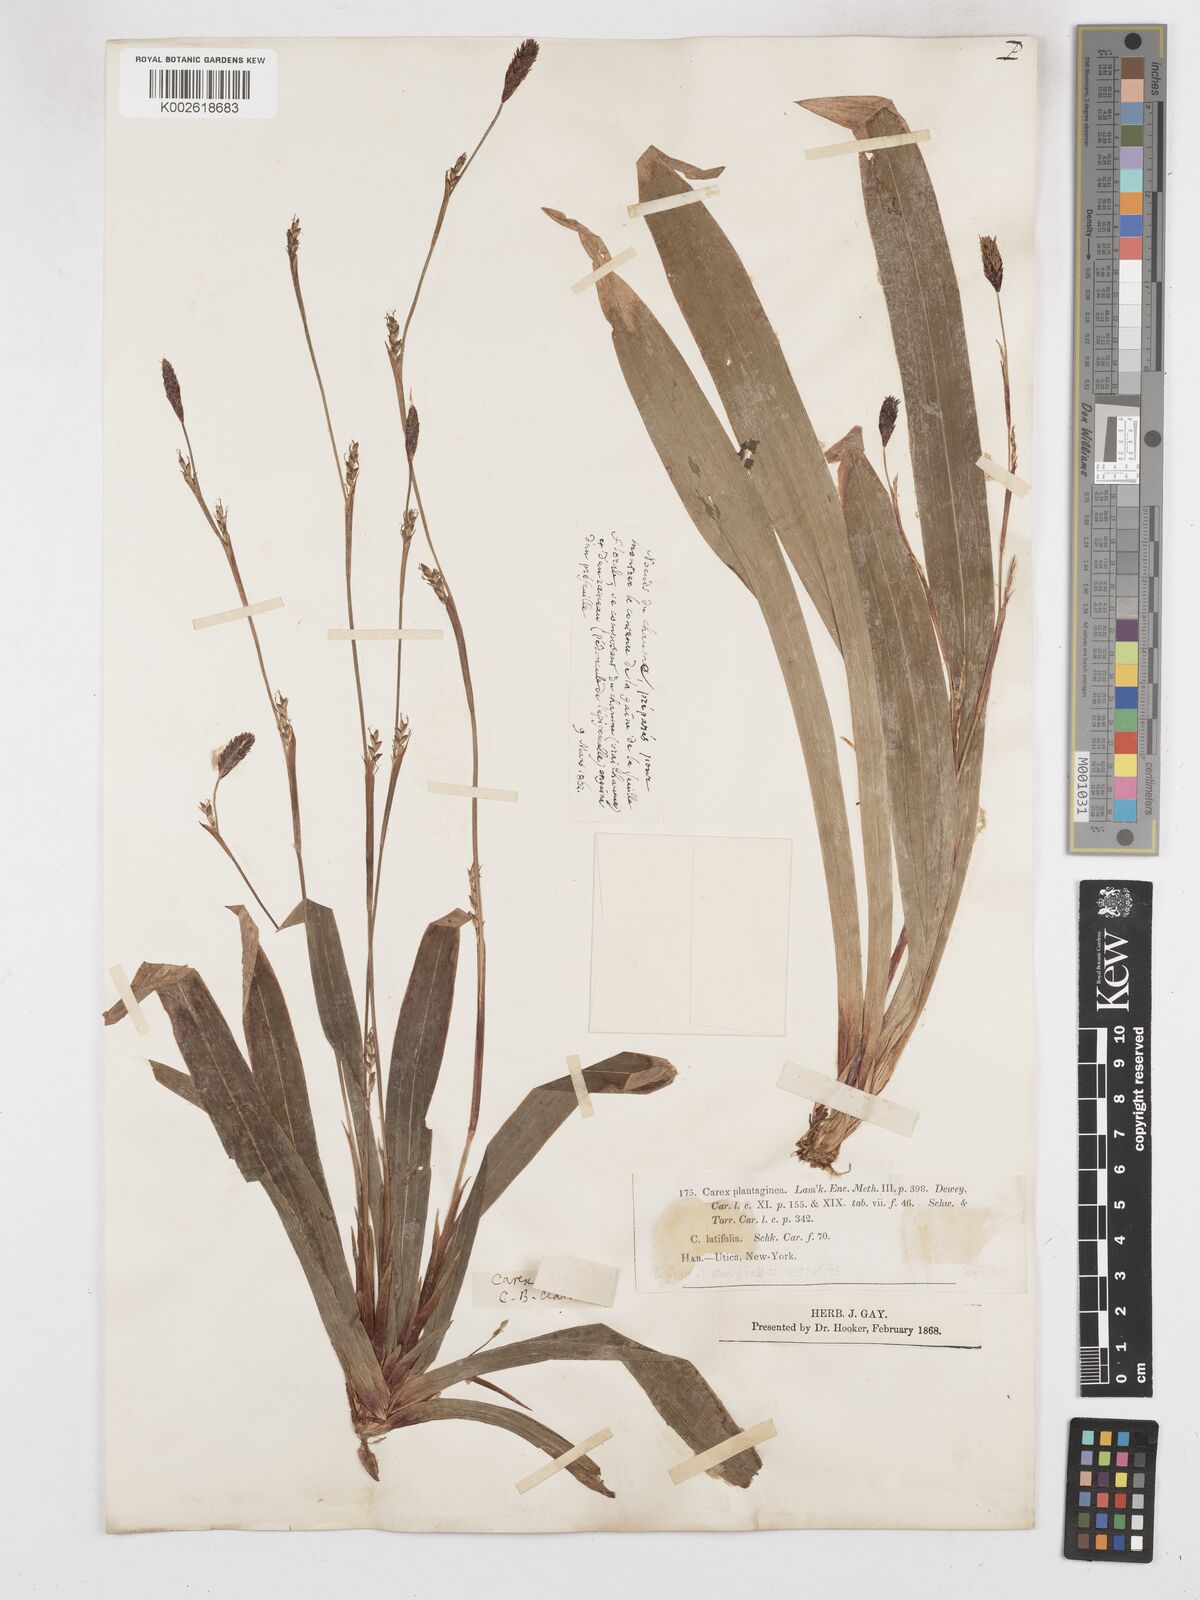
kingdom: Plantae
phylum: Tracheophyta
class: Liliopsida
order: Poales
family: Cyperaceae
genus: Carex
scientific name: Carex plantaginea
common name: Plantain-leaved sedge
